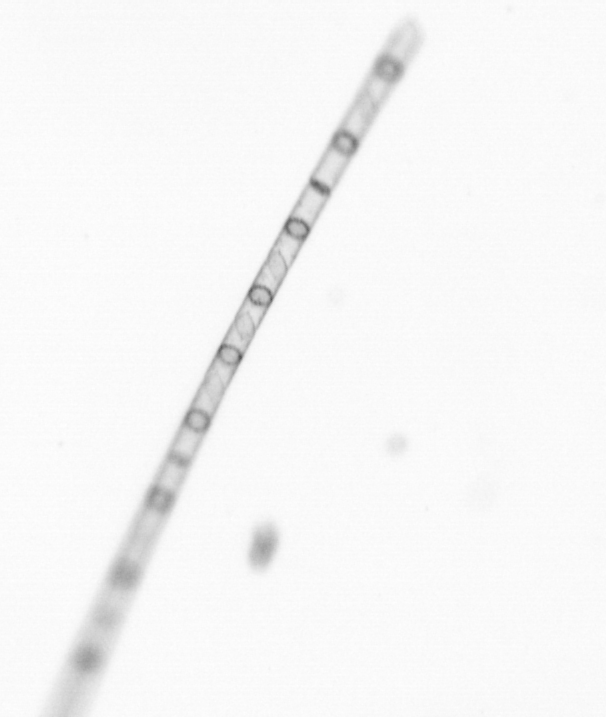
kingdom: Chromista
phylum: Ochrophyta
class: Bacillariophyceae
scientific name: Bacillariophyceae
